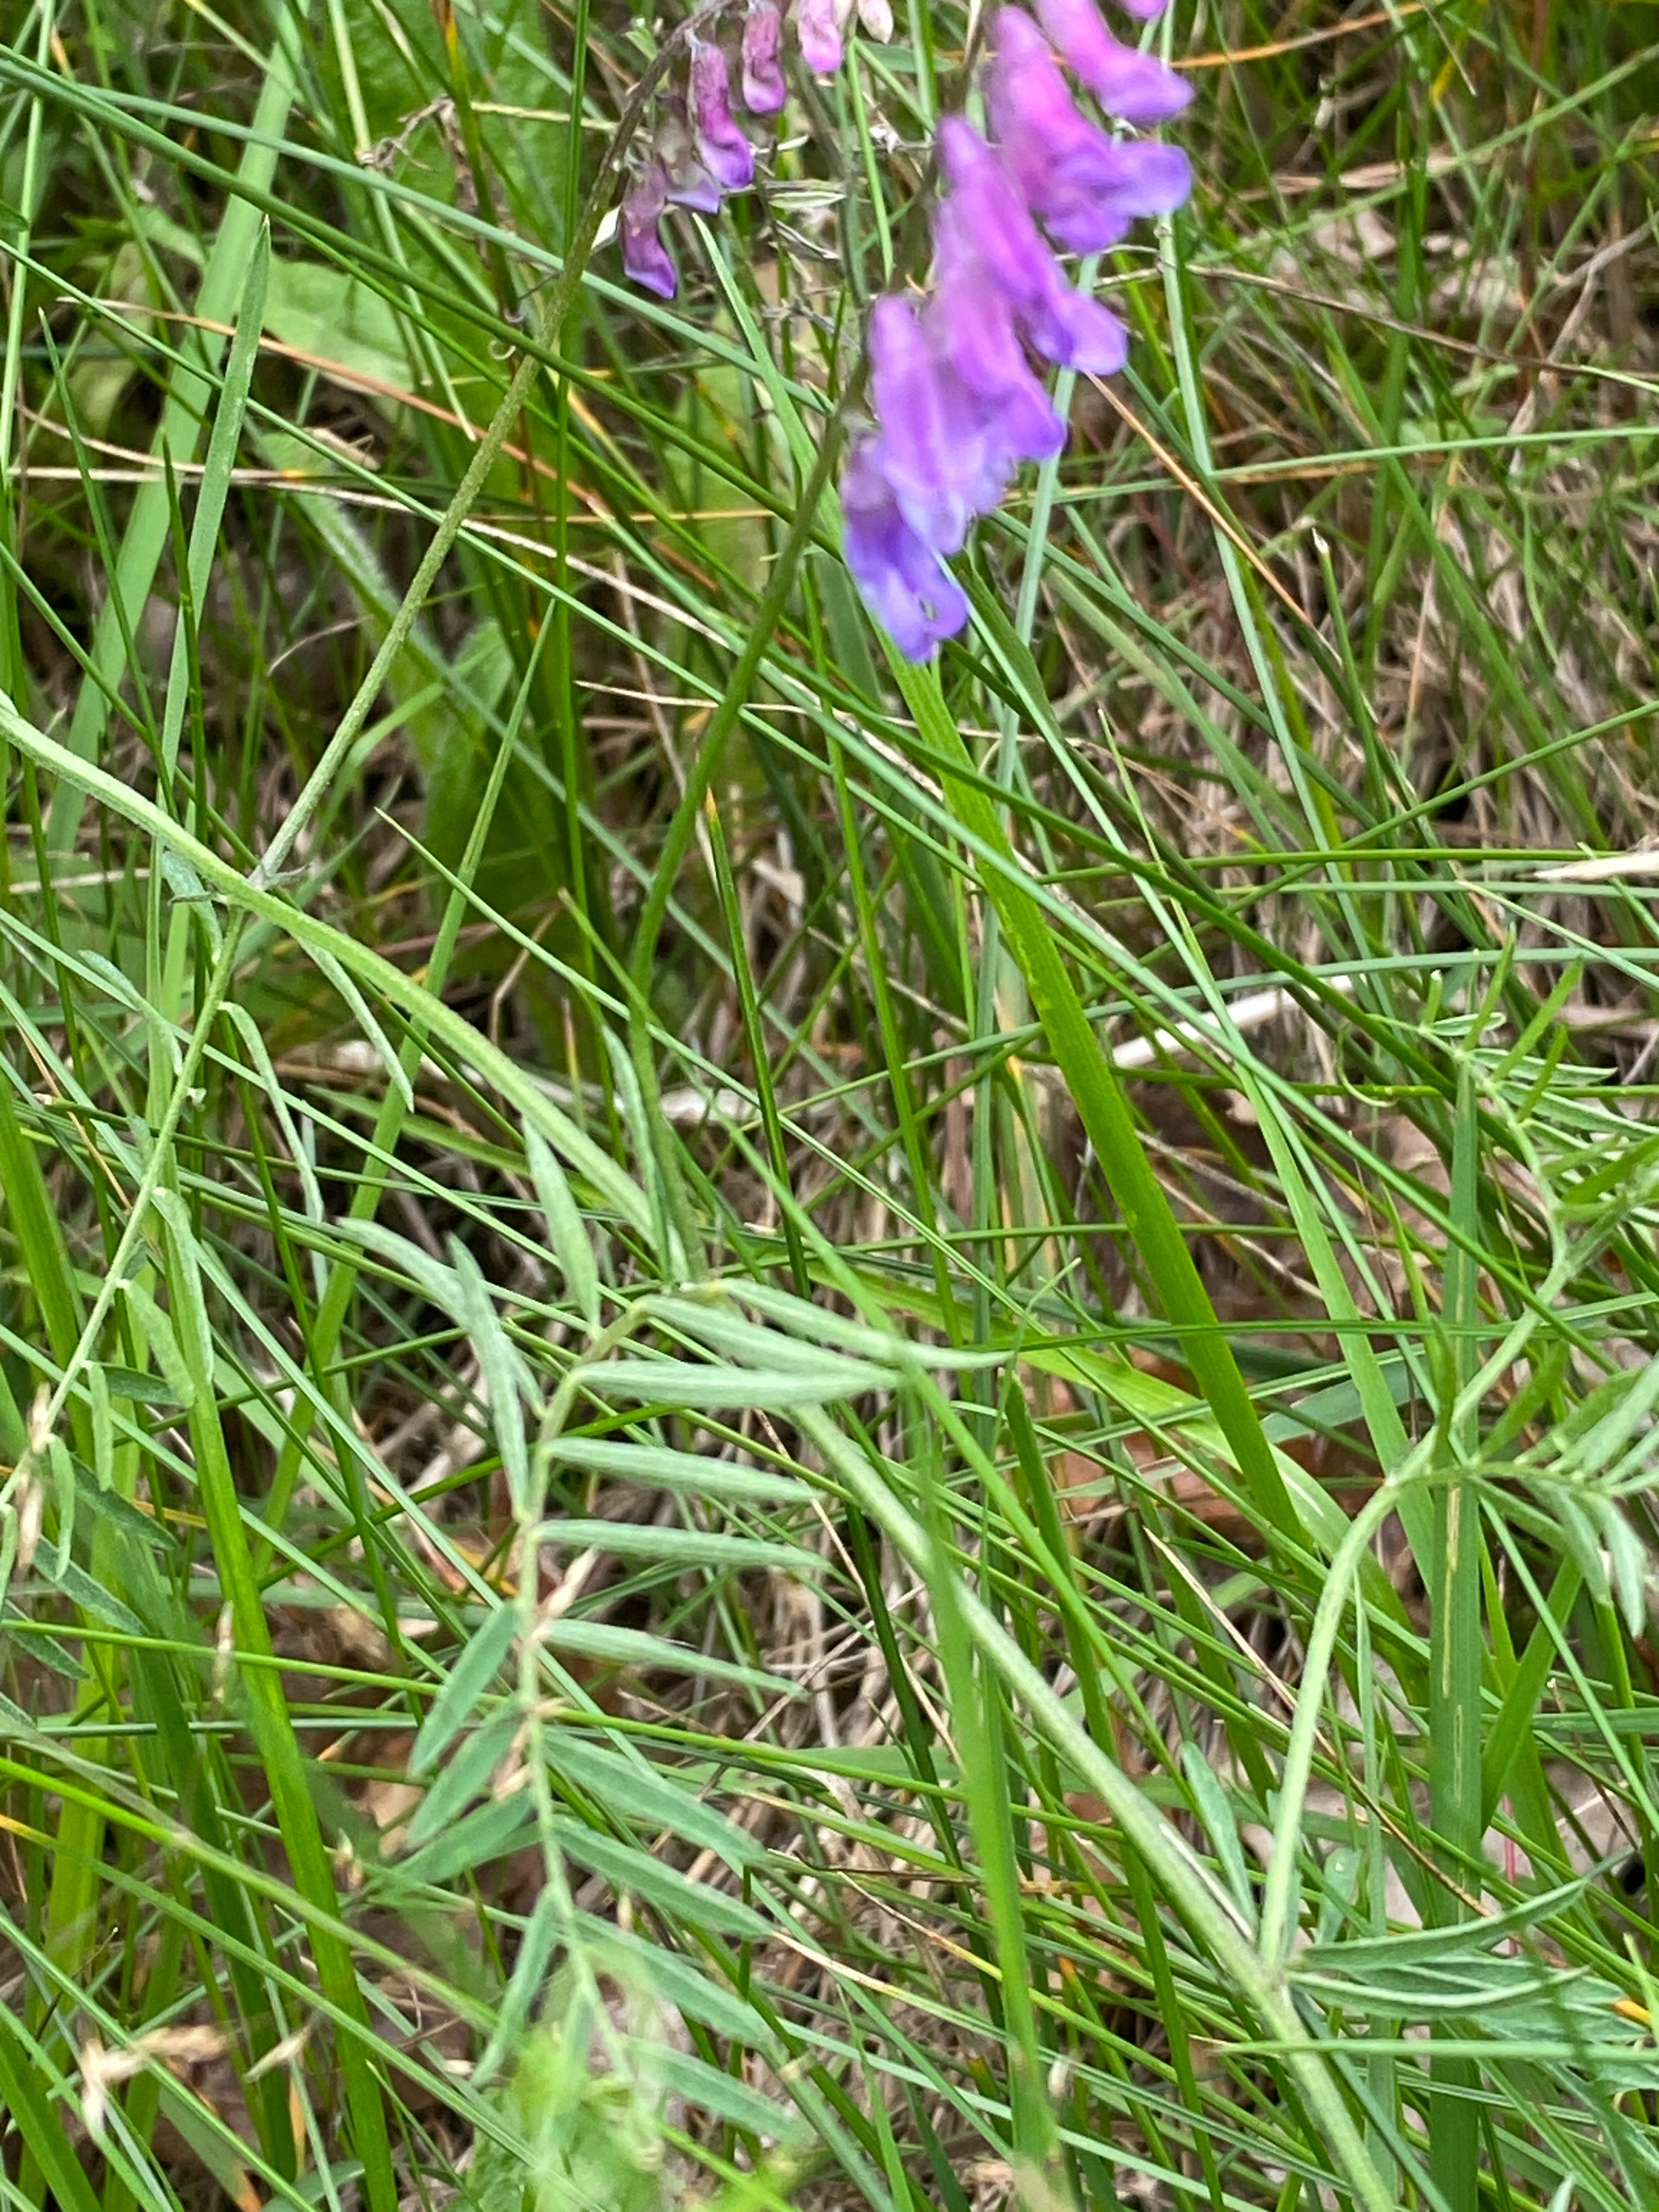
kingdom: Plantae
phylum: Tracheophyta
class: Magnoliopsida
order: Fabales
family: Fabaceae
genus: Vicia
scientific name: Vicia cracca
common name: Muse-vikke
